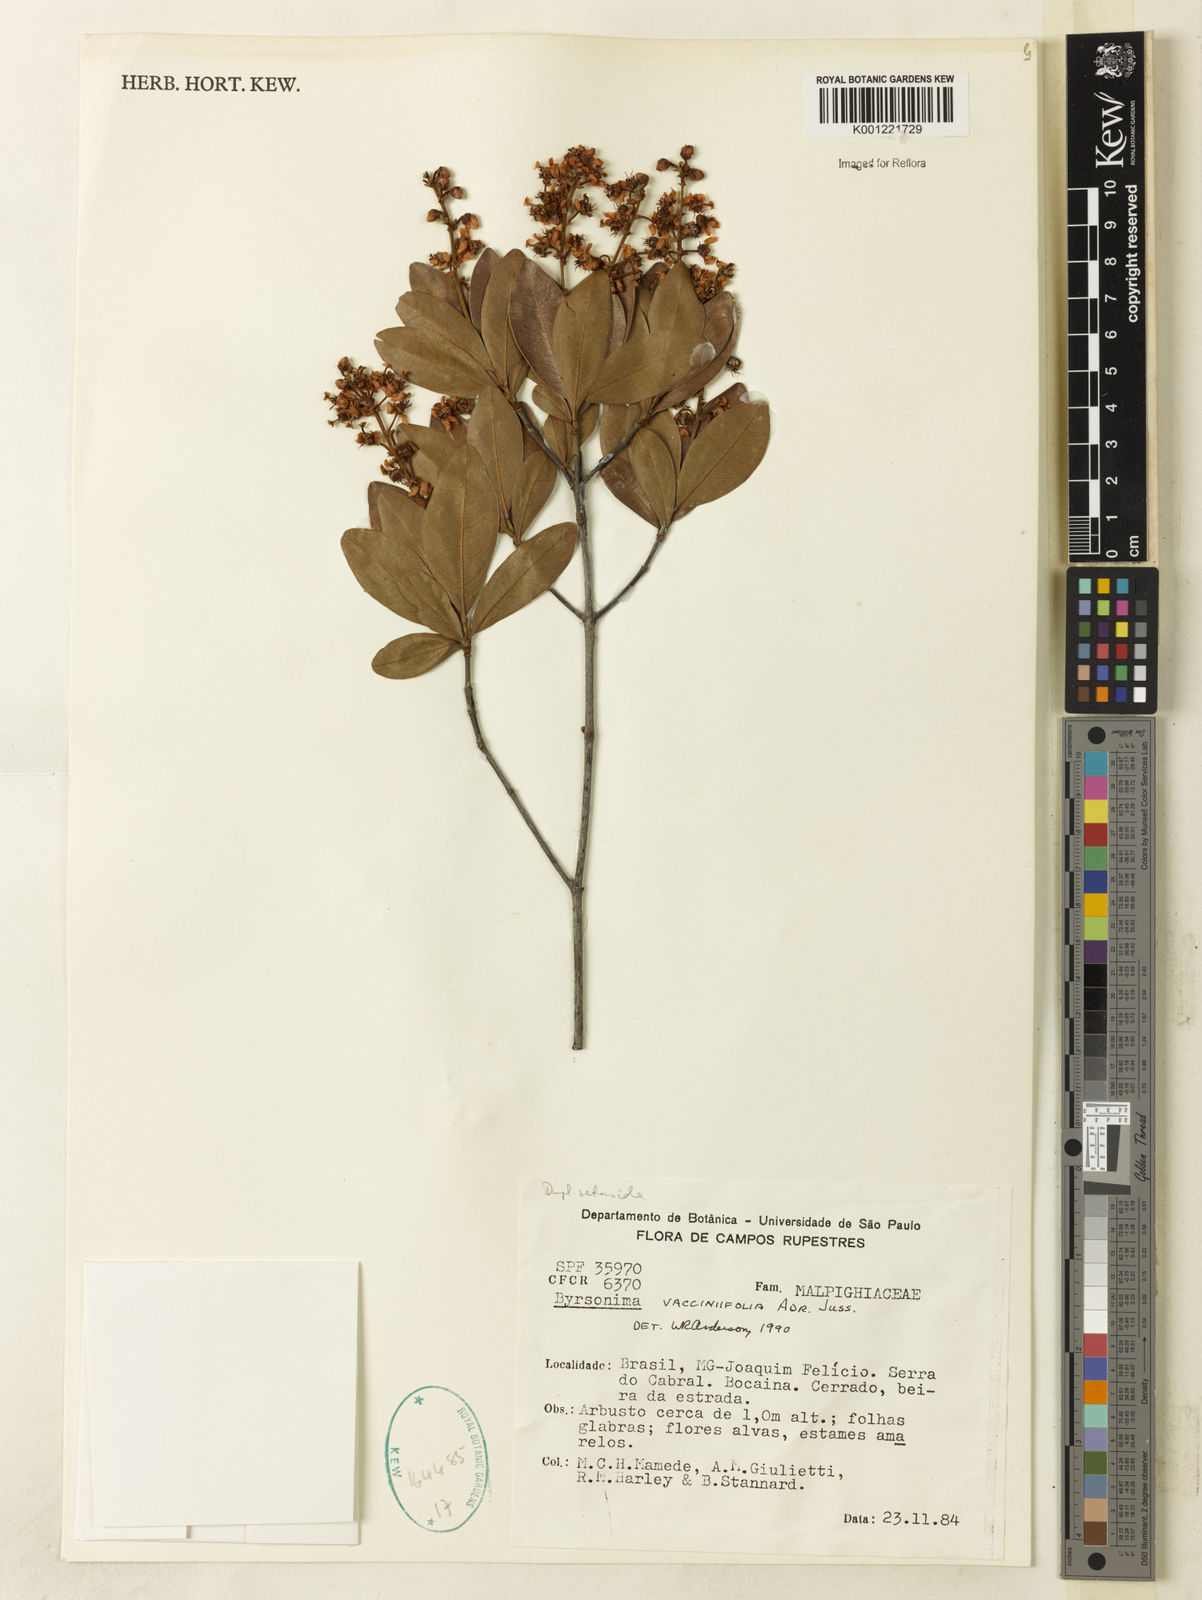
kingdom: Plantae
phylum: Tracheophyta
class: Magnoliopsida
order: Malpighiales
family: Malpighiaceae
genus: Byrsonima
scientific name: Byrsonima vacciniifolia
